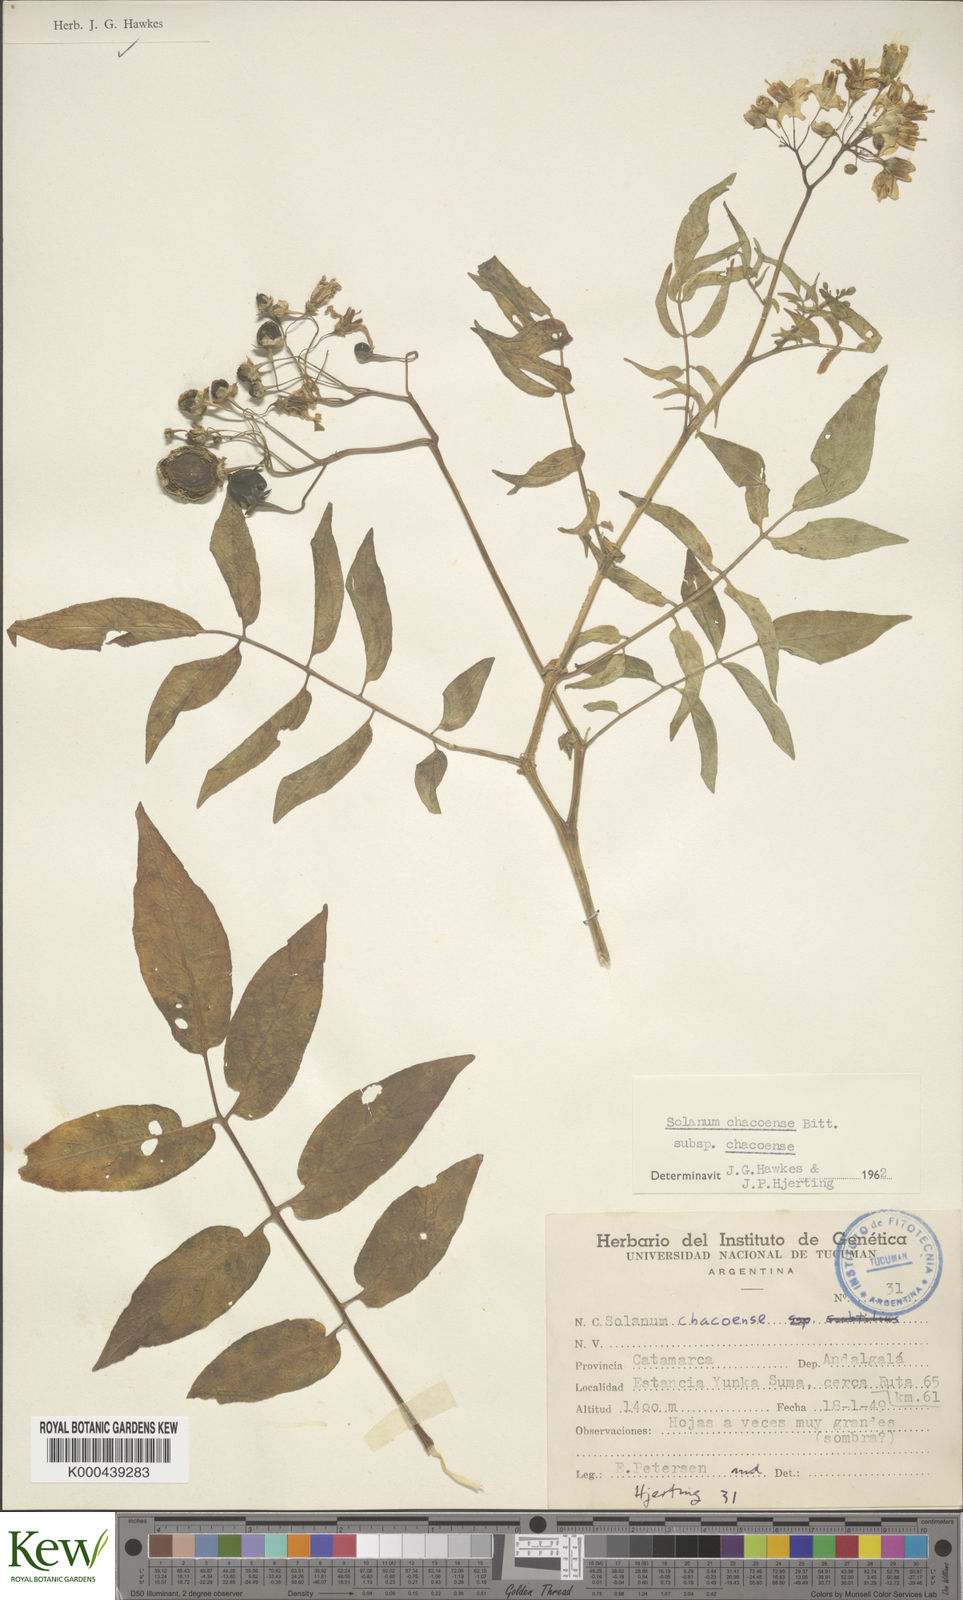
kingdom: Plantae
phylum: Tracheophyta
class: Magnoliopsida
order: Solanales
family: Solanaceae
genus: Solanum
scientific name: Solanum chacoense
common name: Chaco potato
